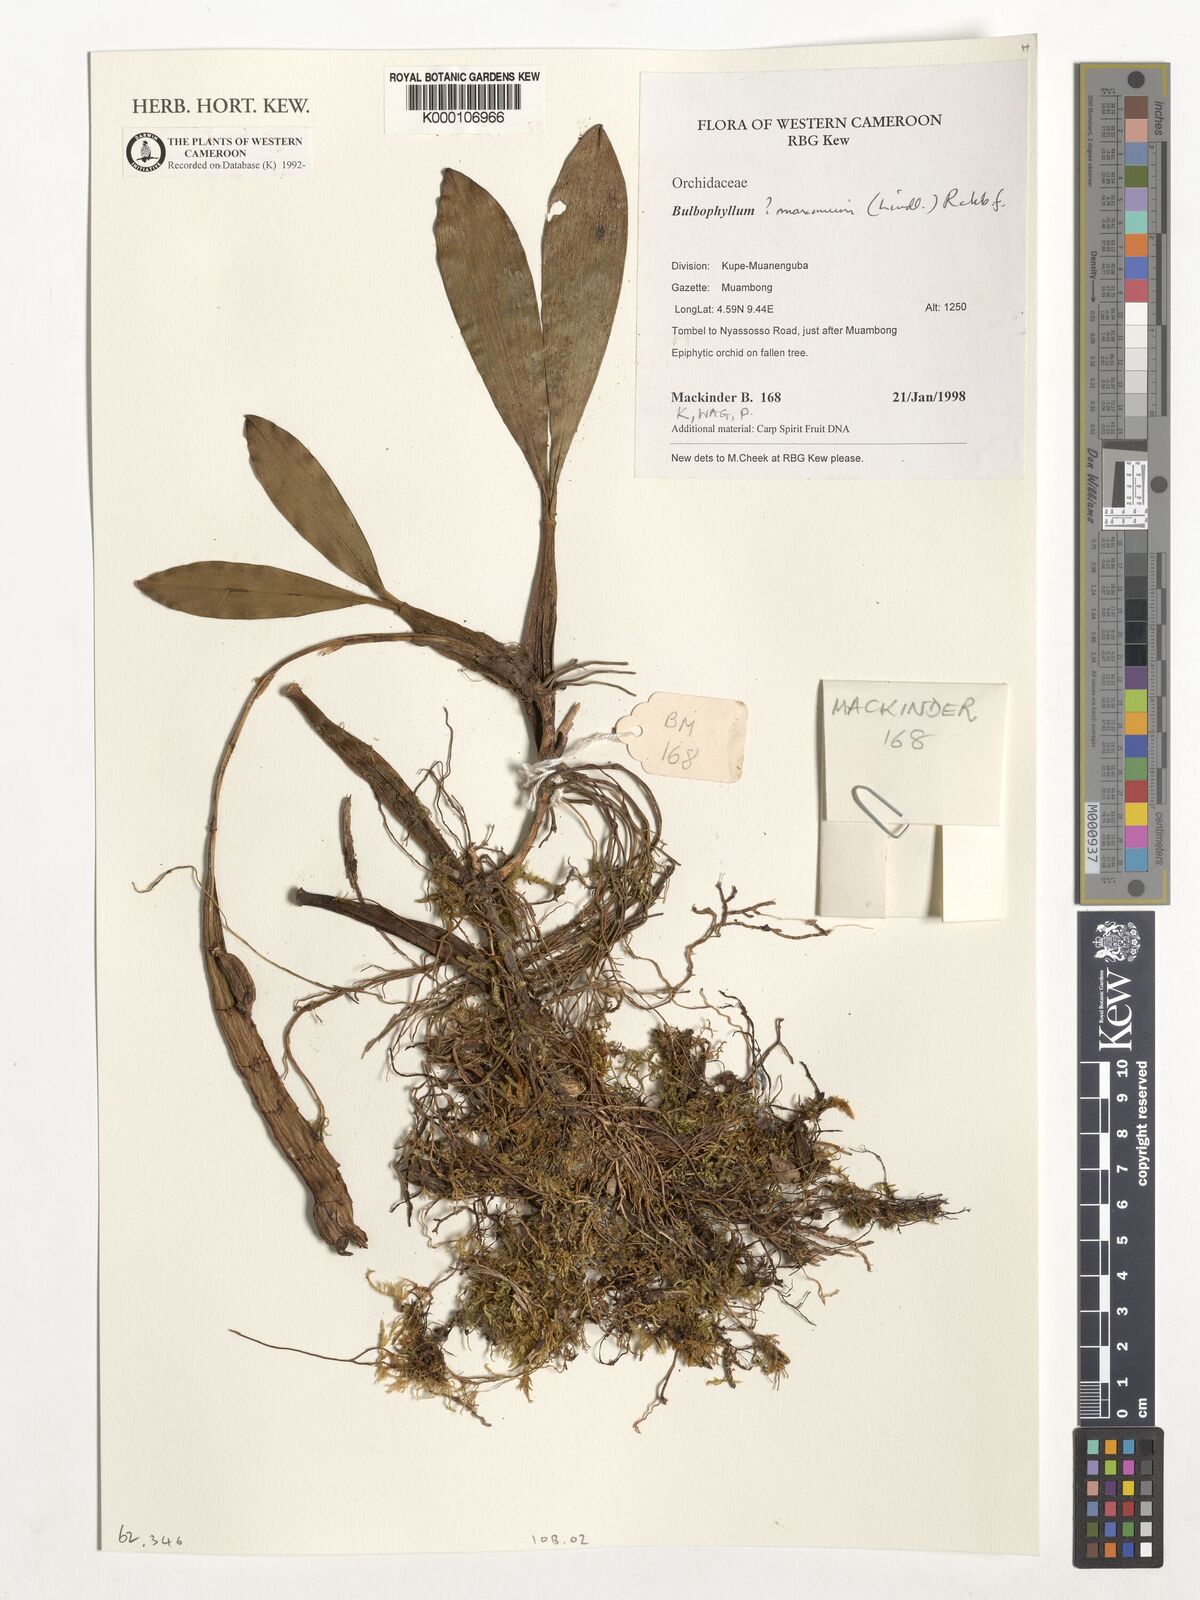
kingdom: Plantae
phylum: Tracheophyta
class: Liliopsida
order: Asparagales
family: Orchidaceae
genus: Bulbophyllum
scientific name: Bulbophyllum maximum
